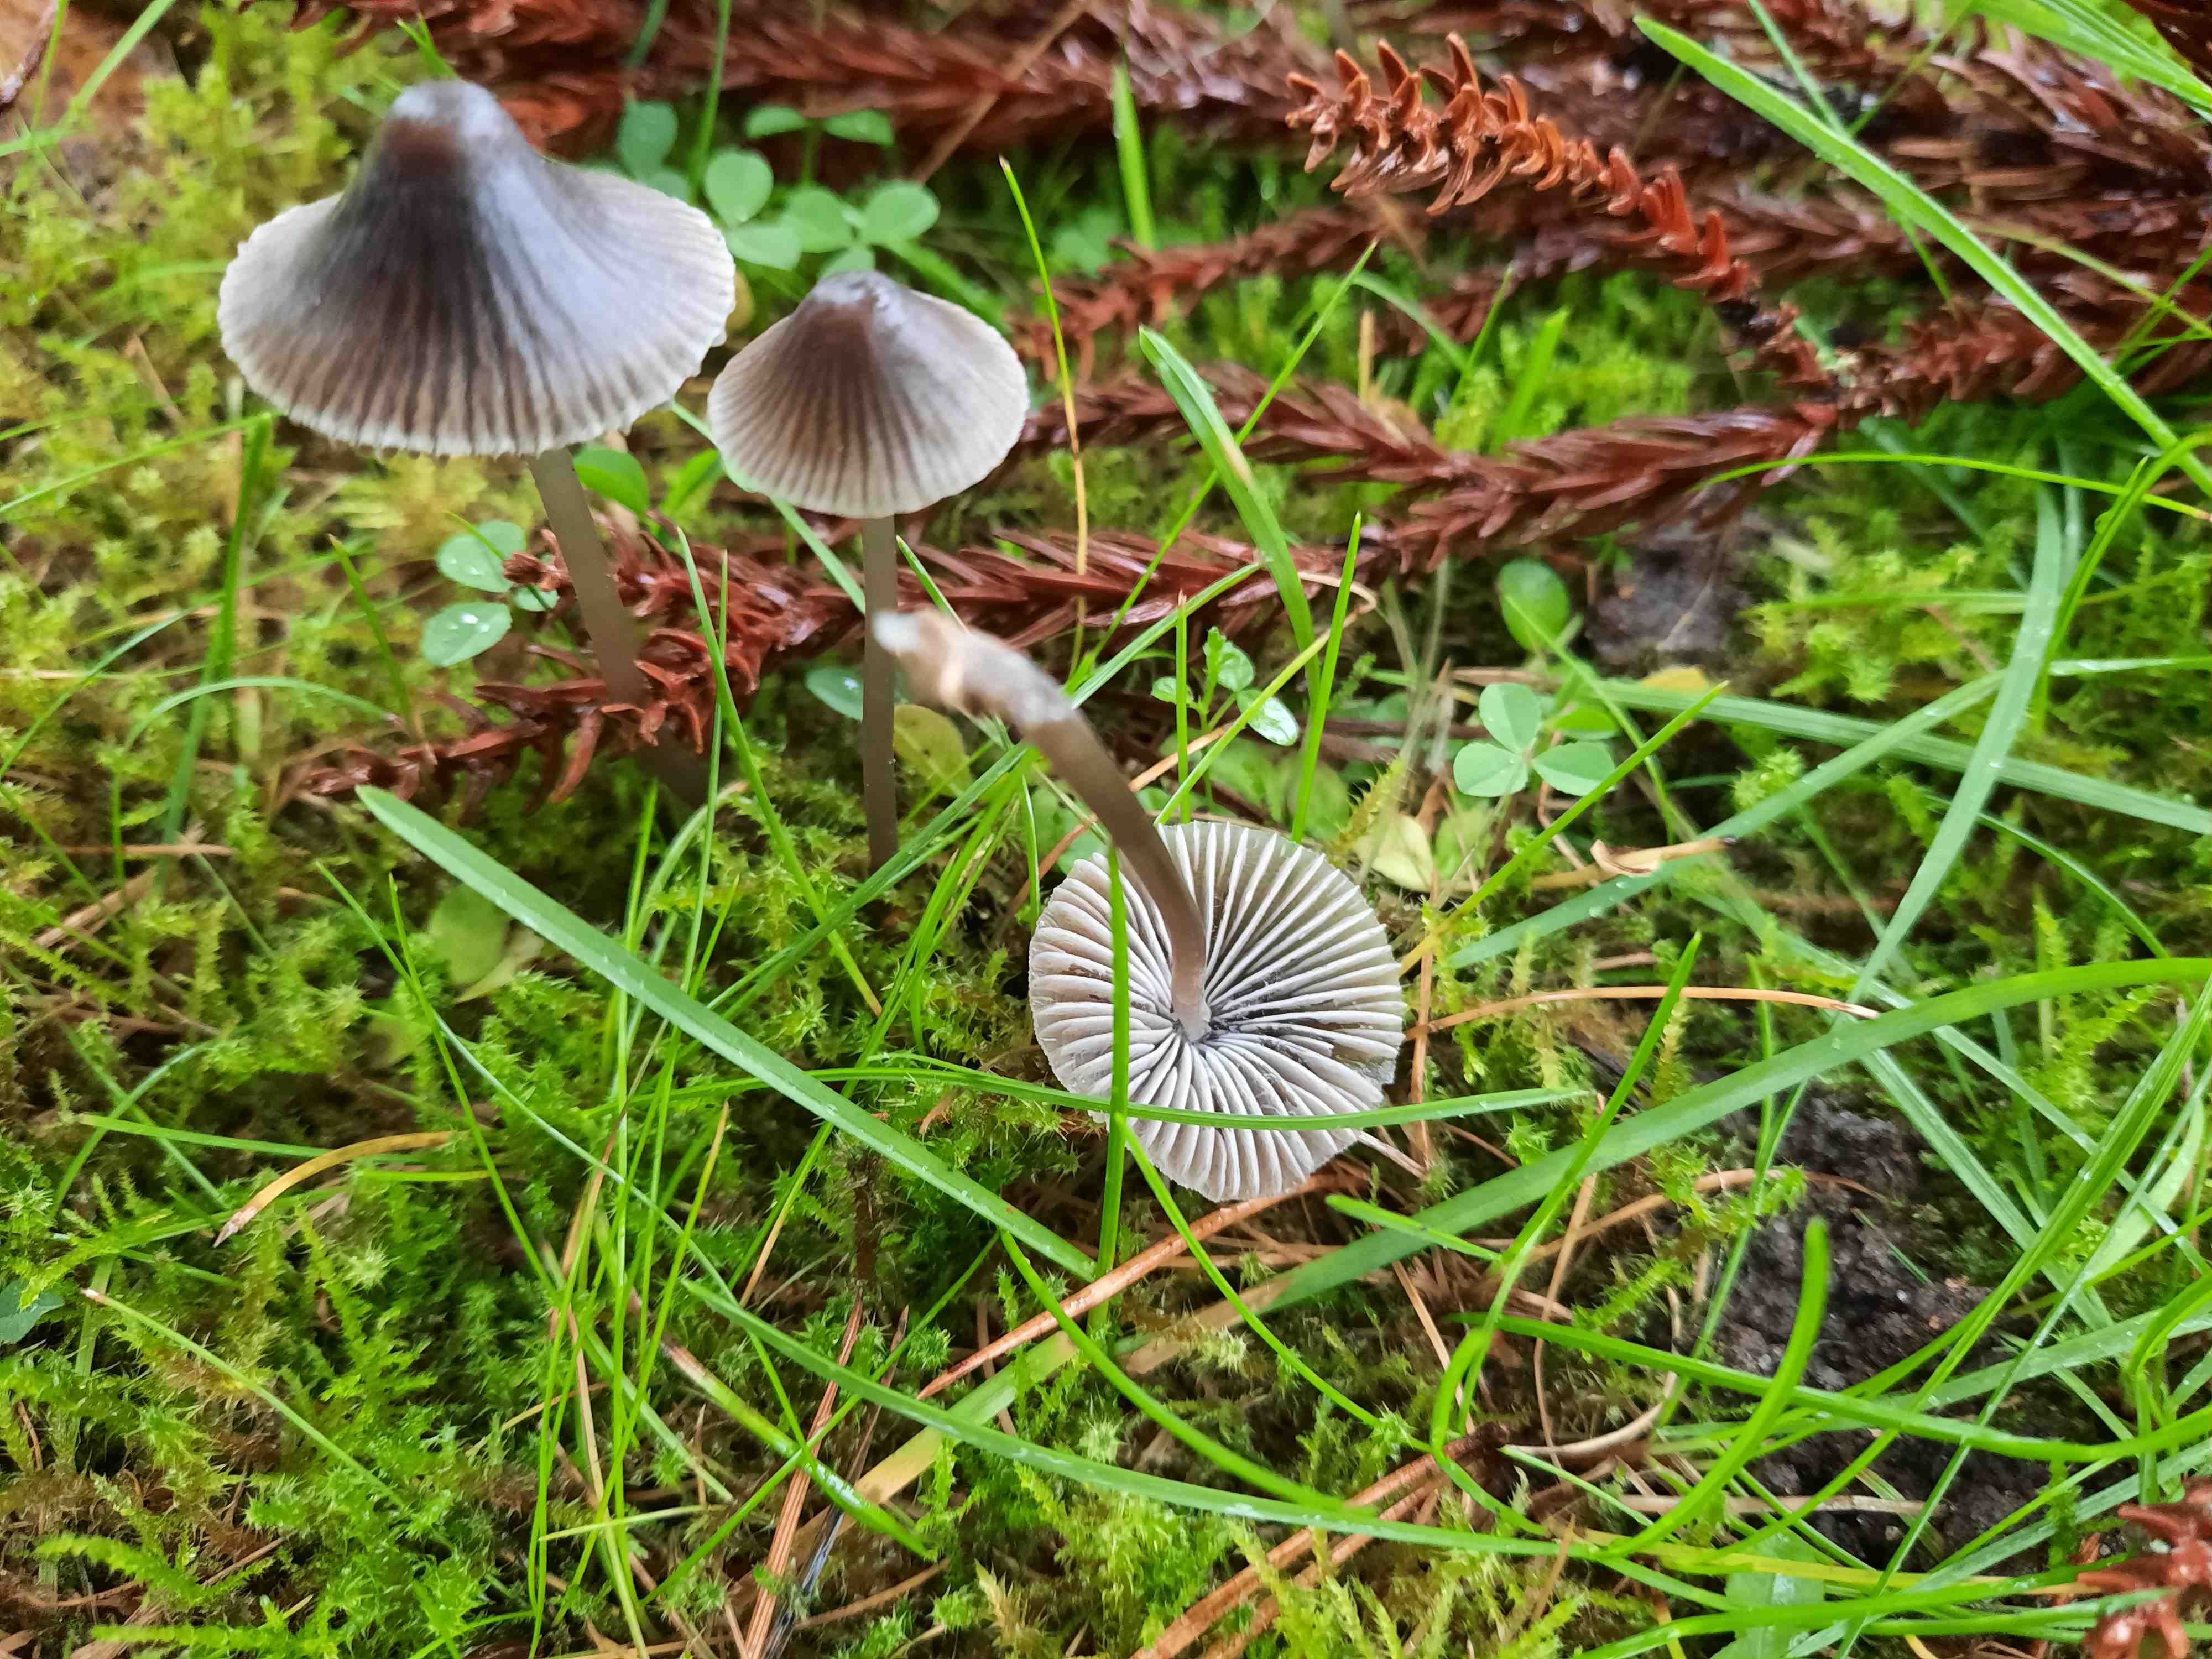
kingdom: Fungi
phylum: Basidiomycota
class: Agaricomycetes
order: Agaricales
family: Mycenaceae
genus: Mycena
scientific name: Mycena aetites
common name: plæne-huesvamp
